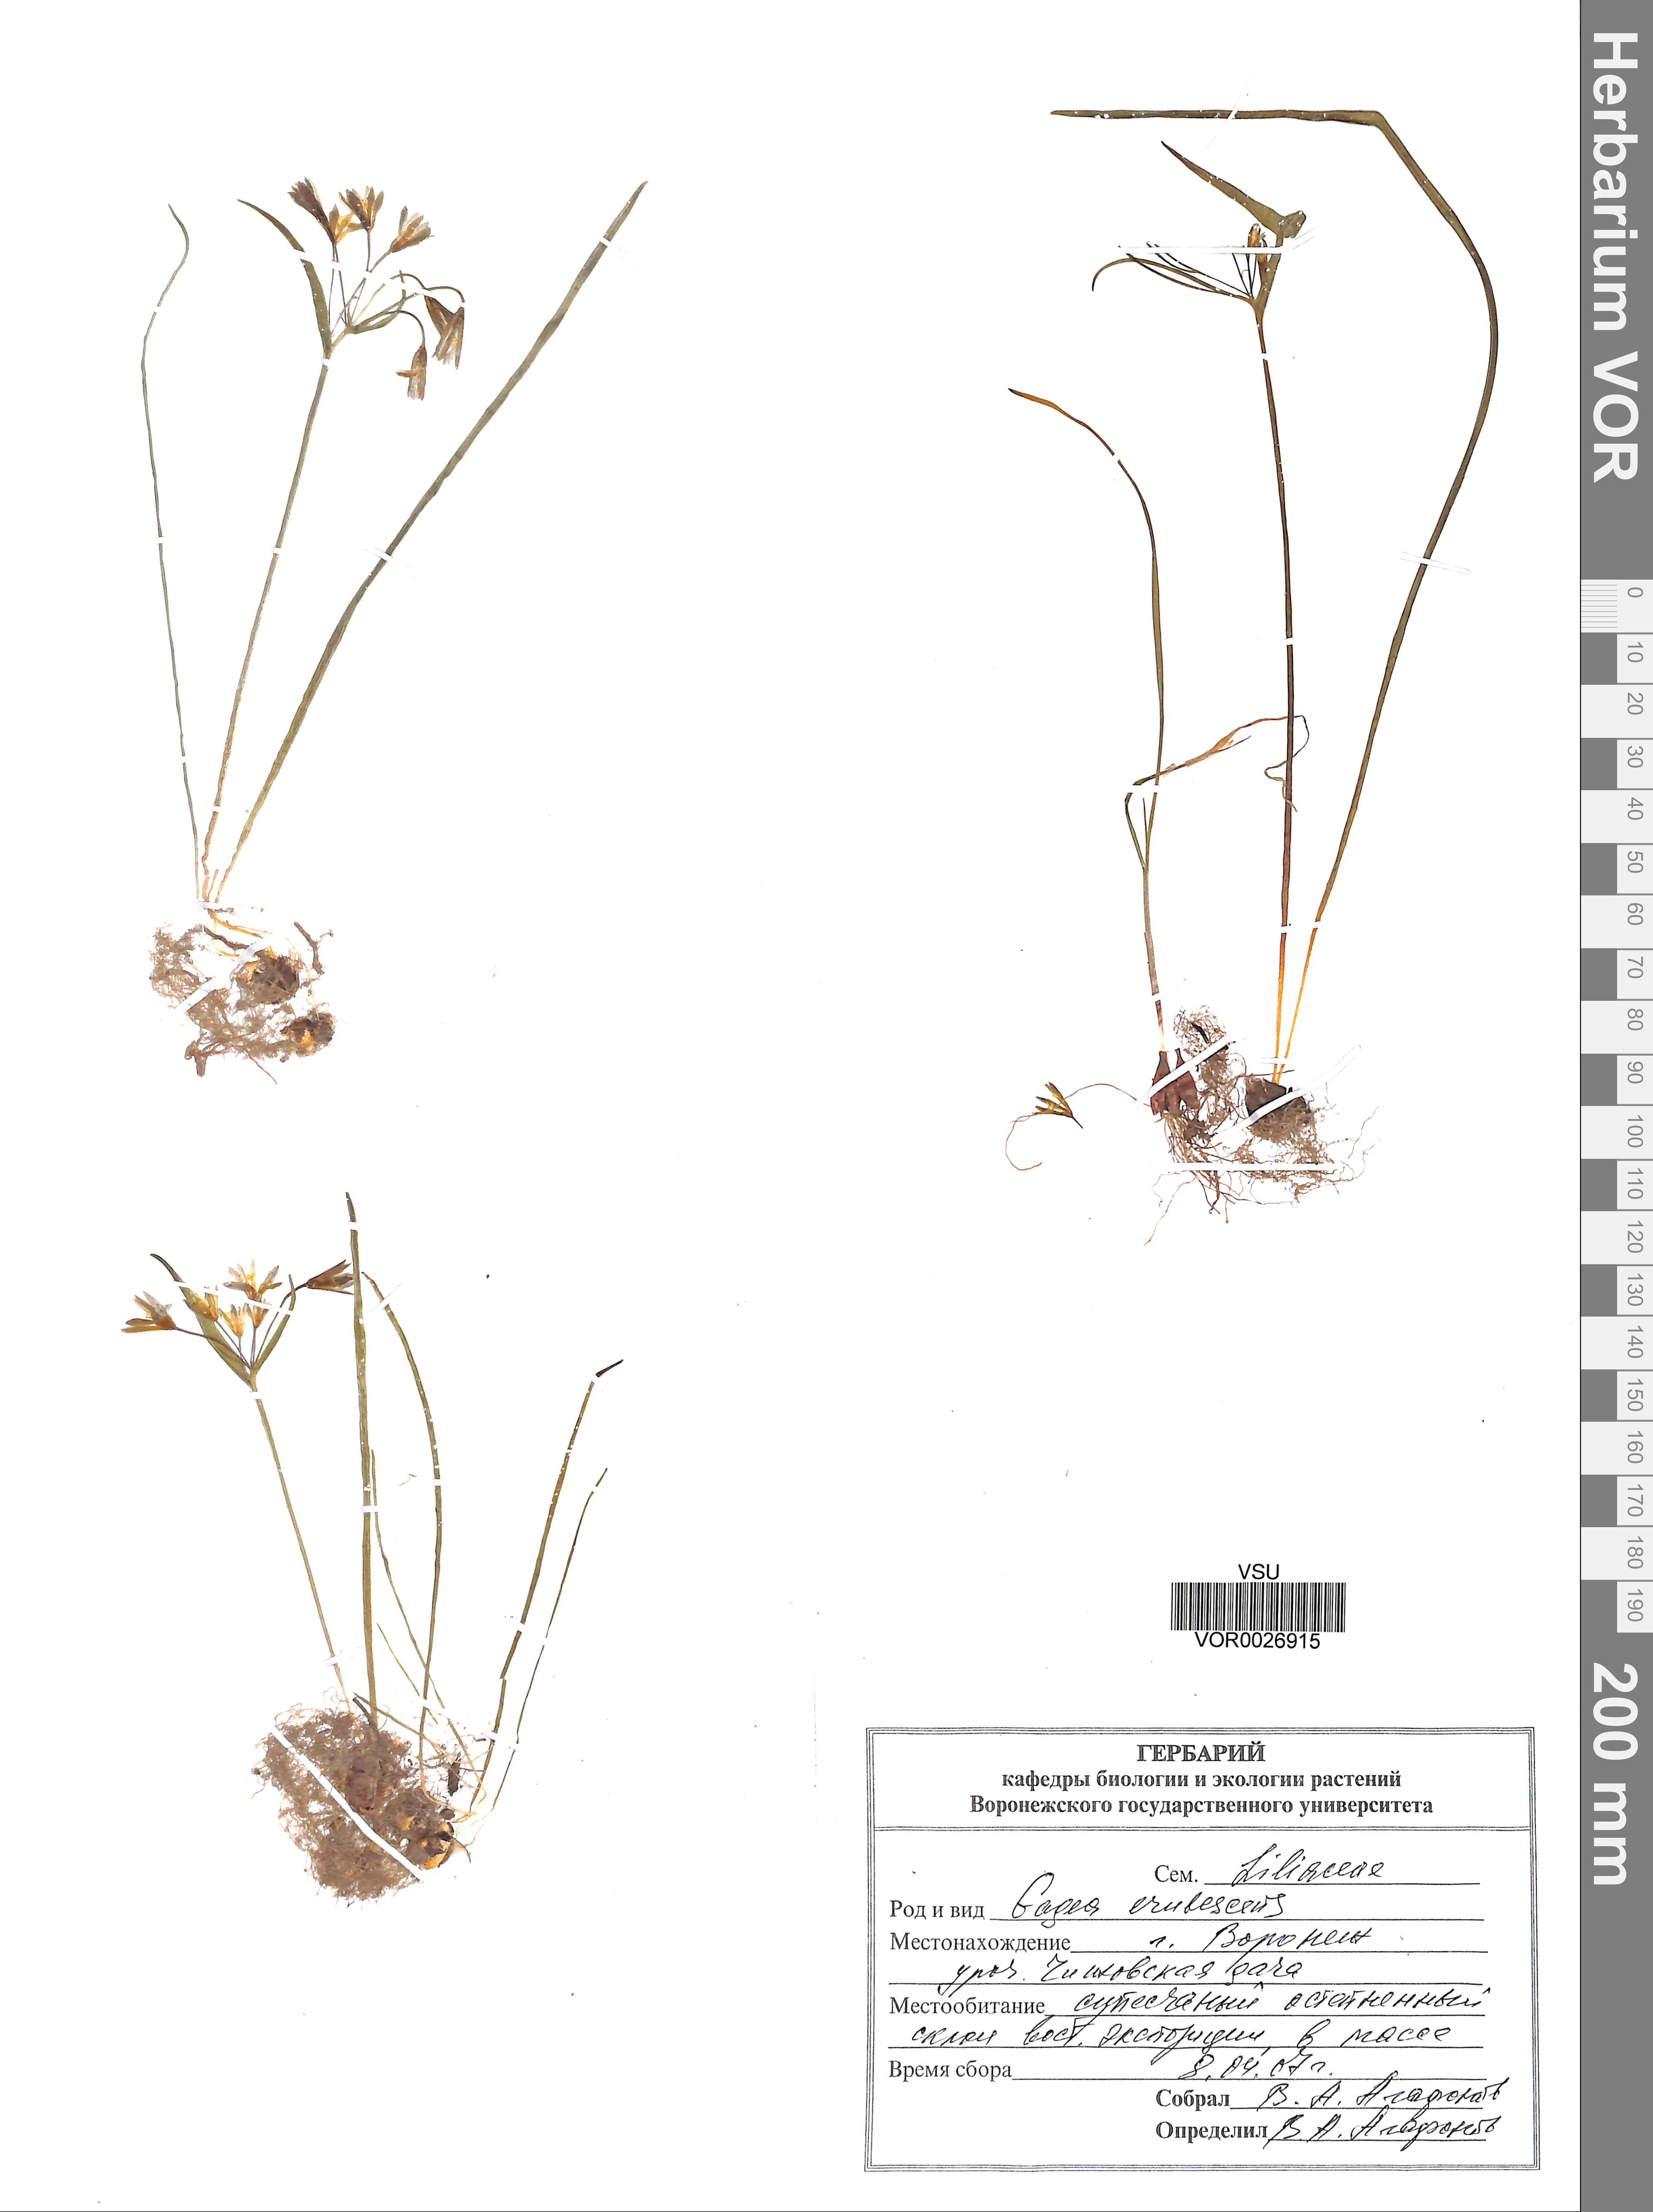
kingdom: Plantae
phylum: Tracheophyta
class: Liliopsida
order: Liliales
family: Liliaceae
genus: Gagea
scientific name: Gagea fragifera
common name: Lily
